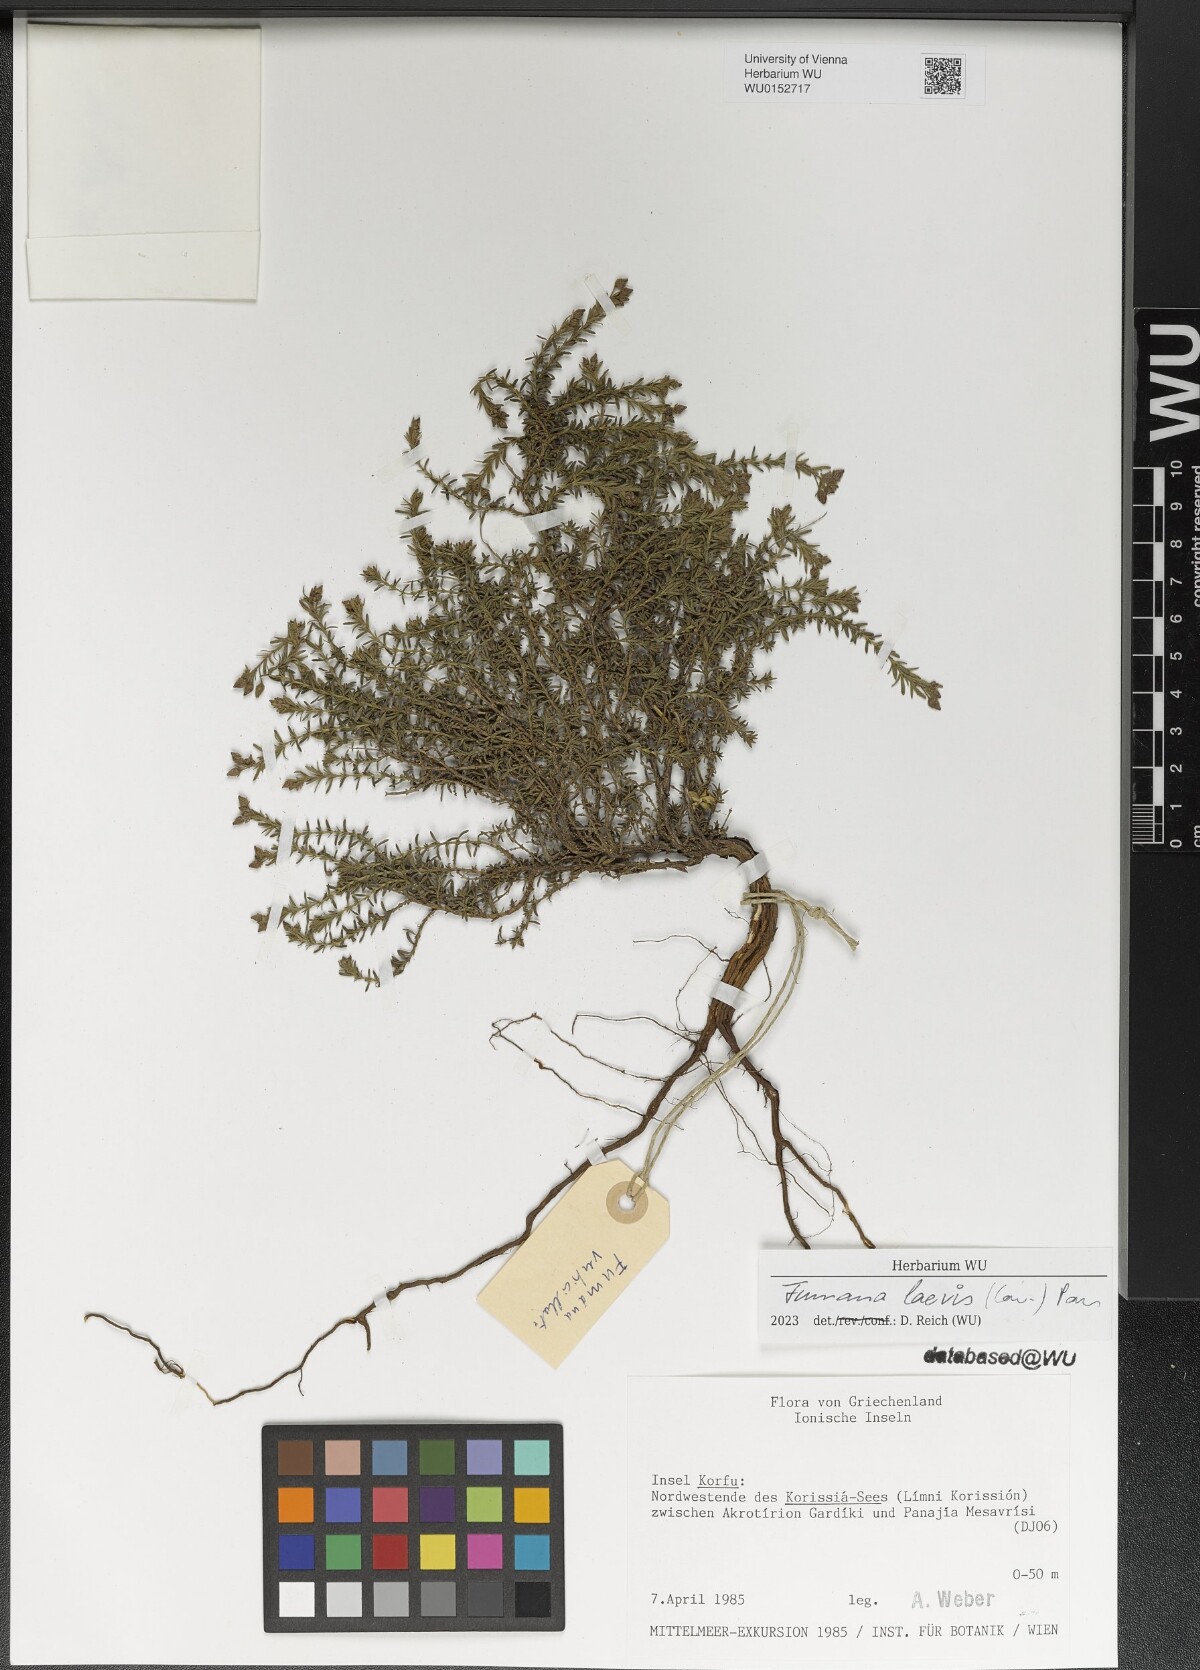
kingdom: Plantae
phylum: Tracheophyta
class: Magnoliopsida
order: Malvales
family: Cistaceae
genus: Fumana
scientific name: Fumana laevis
